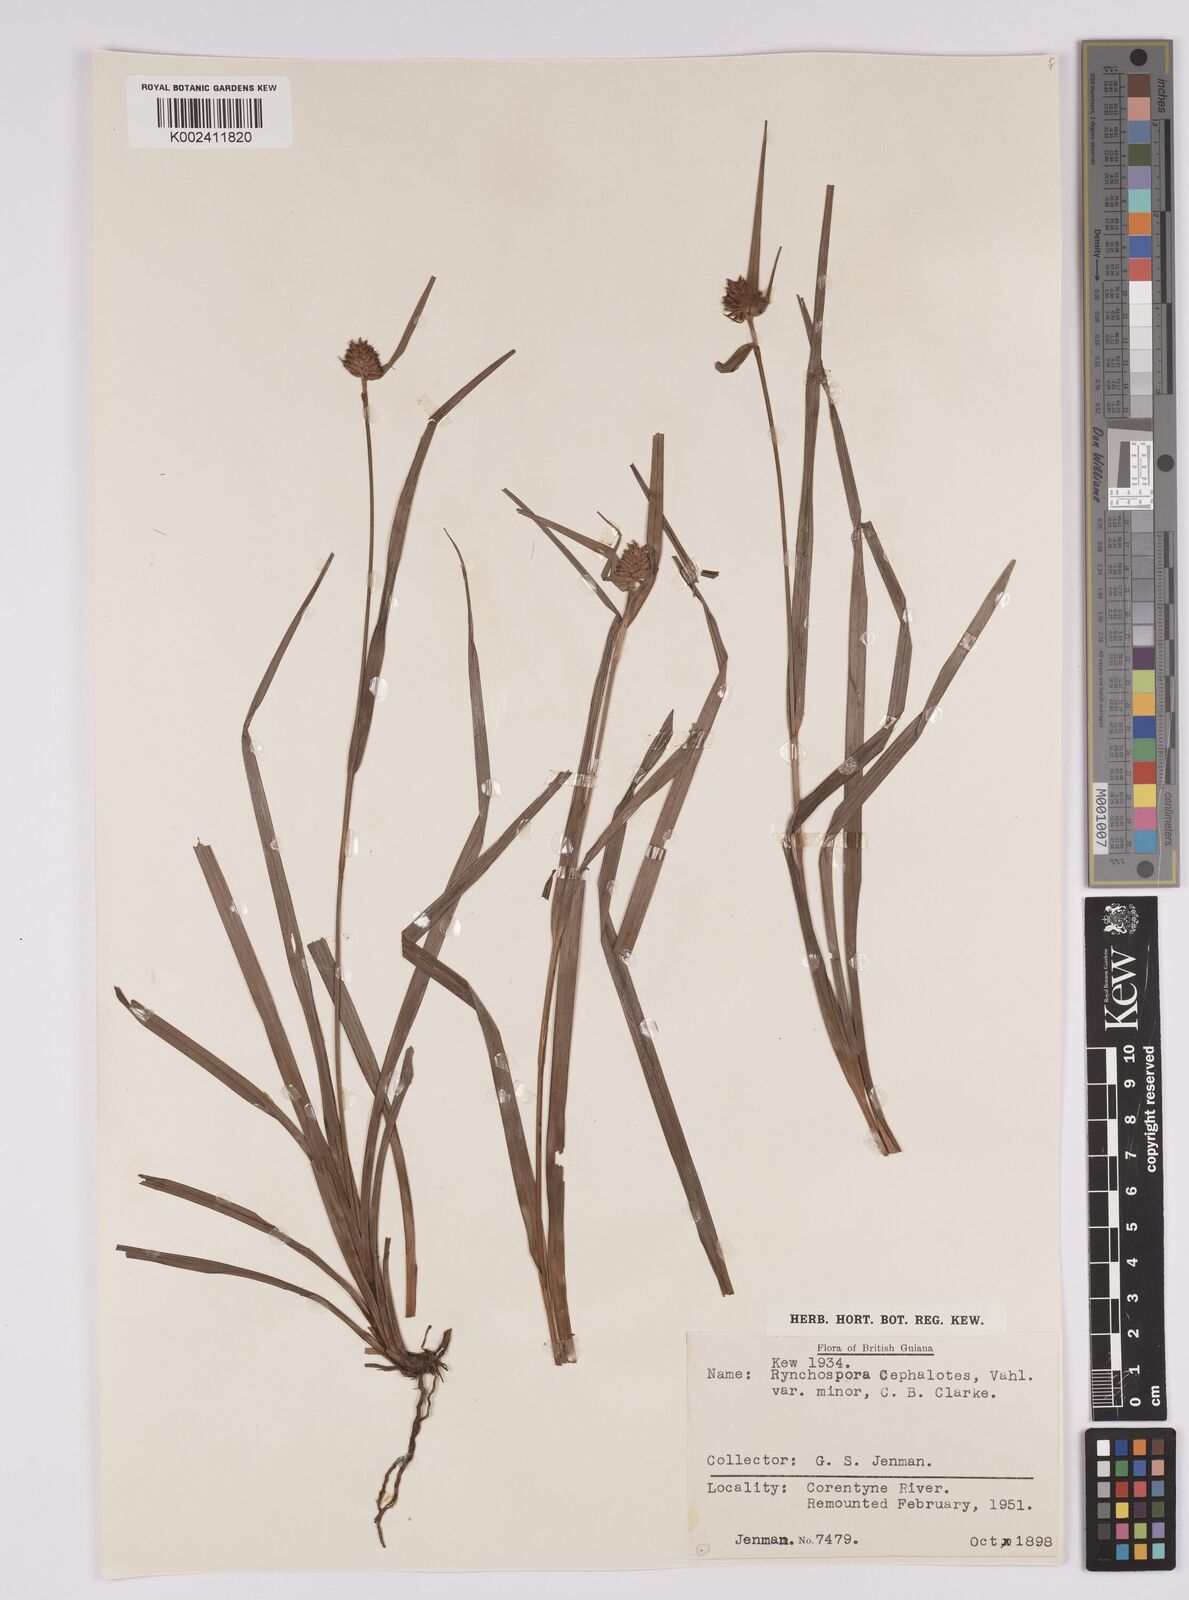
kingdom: Plantae
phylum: Tracheophyta
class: Liliopsida
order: Poales
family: Cyperaceae
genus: Rhynchospora
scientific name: Rhynchospora cephalotes
